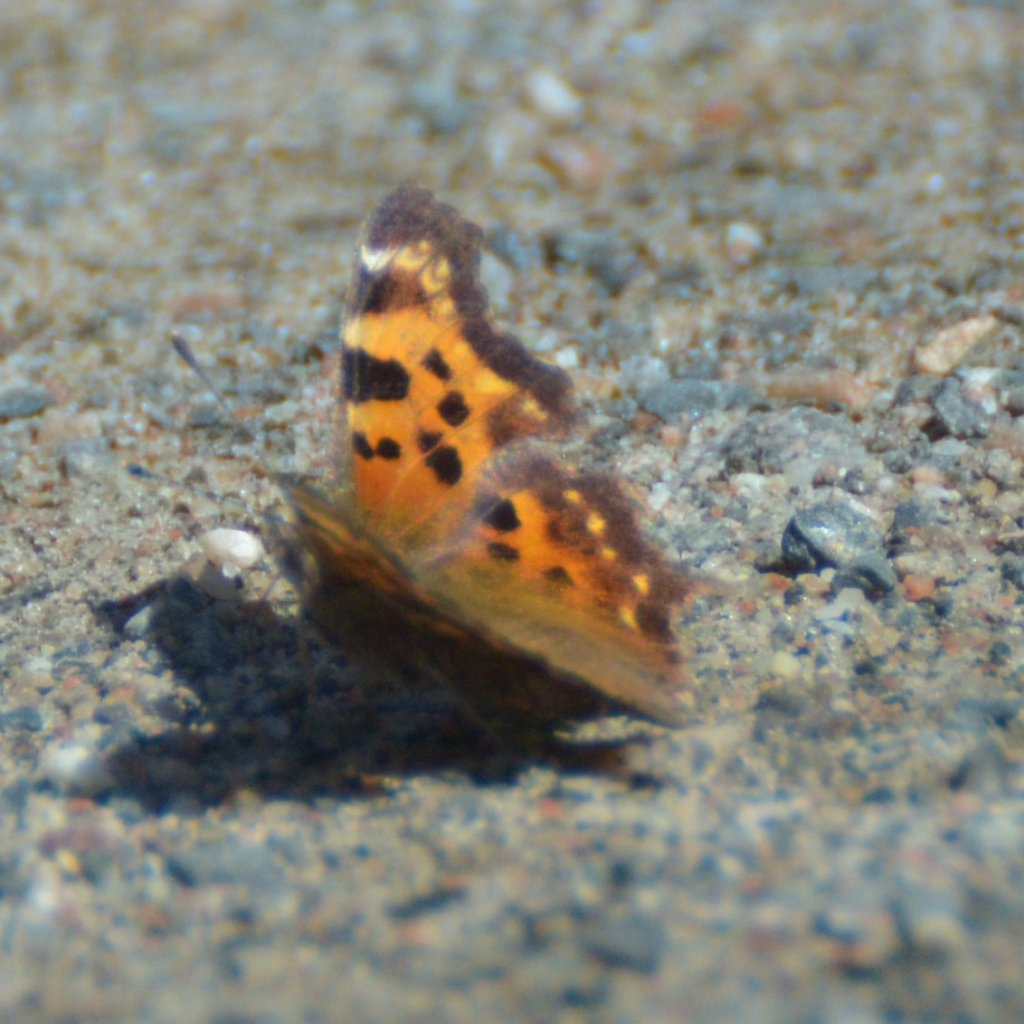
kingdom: Animalia
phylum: Arthropoda
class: Insecta
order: Lepidoptera
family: Nymphalidae
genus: Polygonia
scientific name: Polygonia faunus
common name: Green Comma
